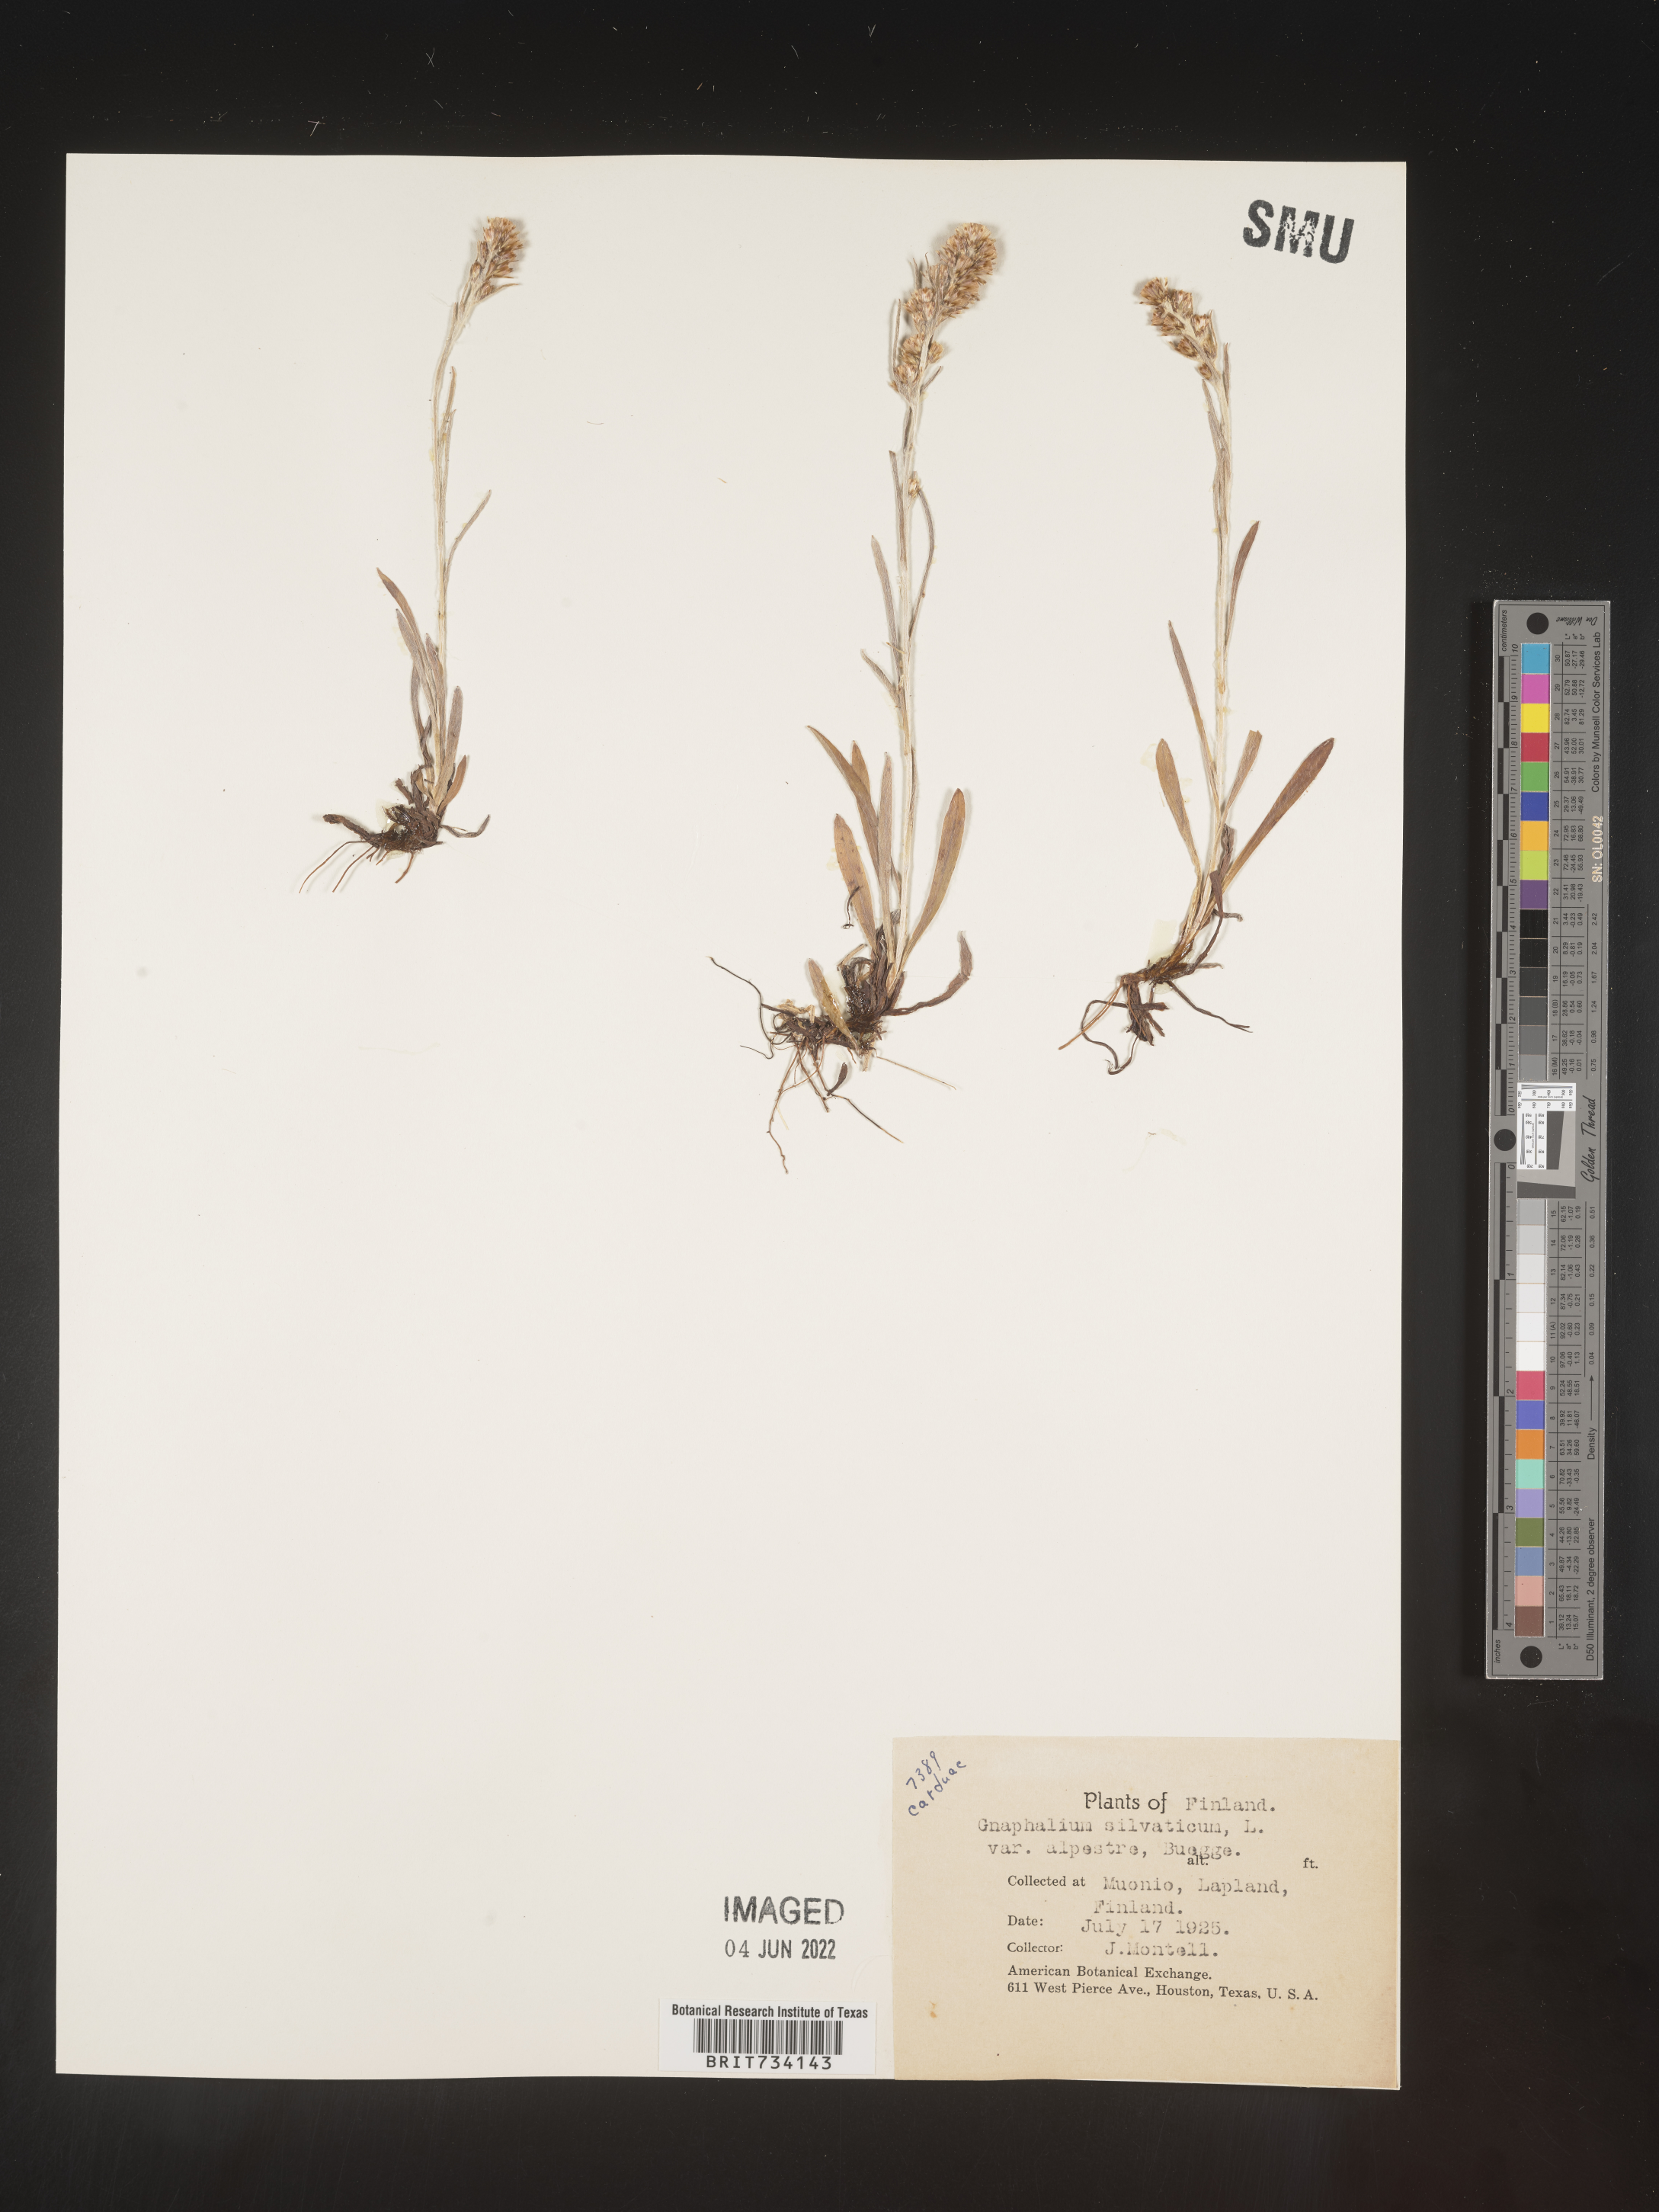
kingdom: Plantae
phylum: Tracheophyta
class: Magnoliopsida
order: Asterales
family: Asteraceae
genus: Omalotheca
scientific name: Omalotheca sylvatica
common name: Heath cudweed
